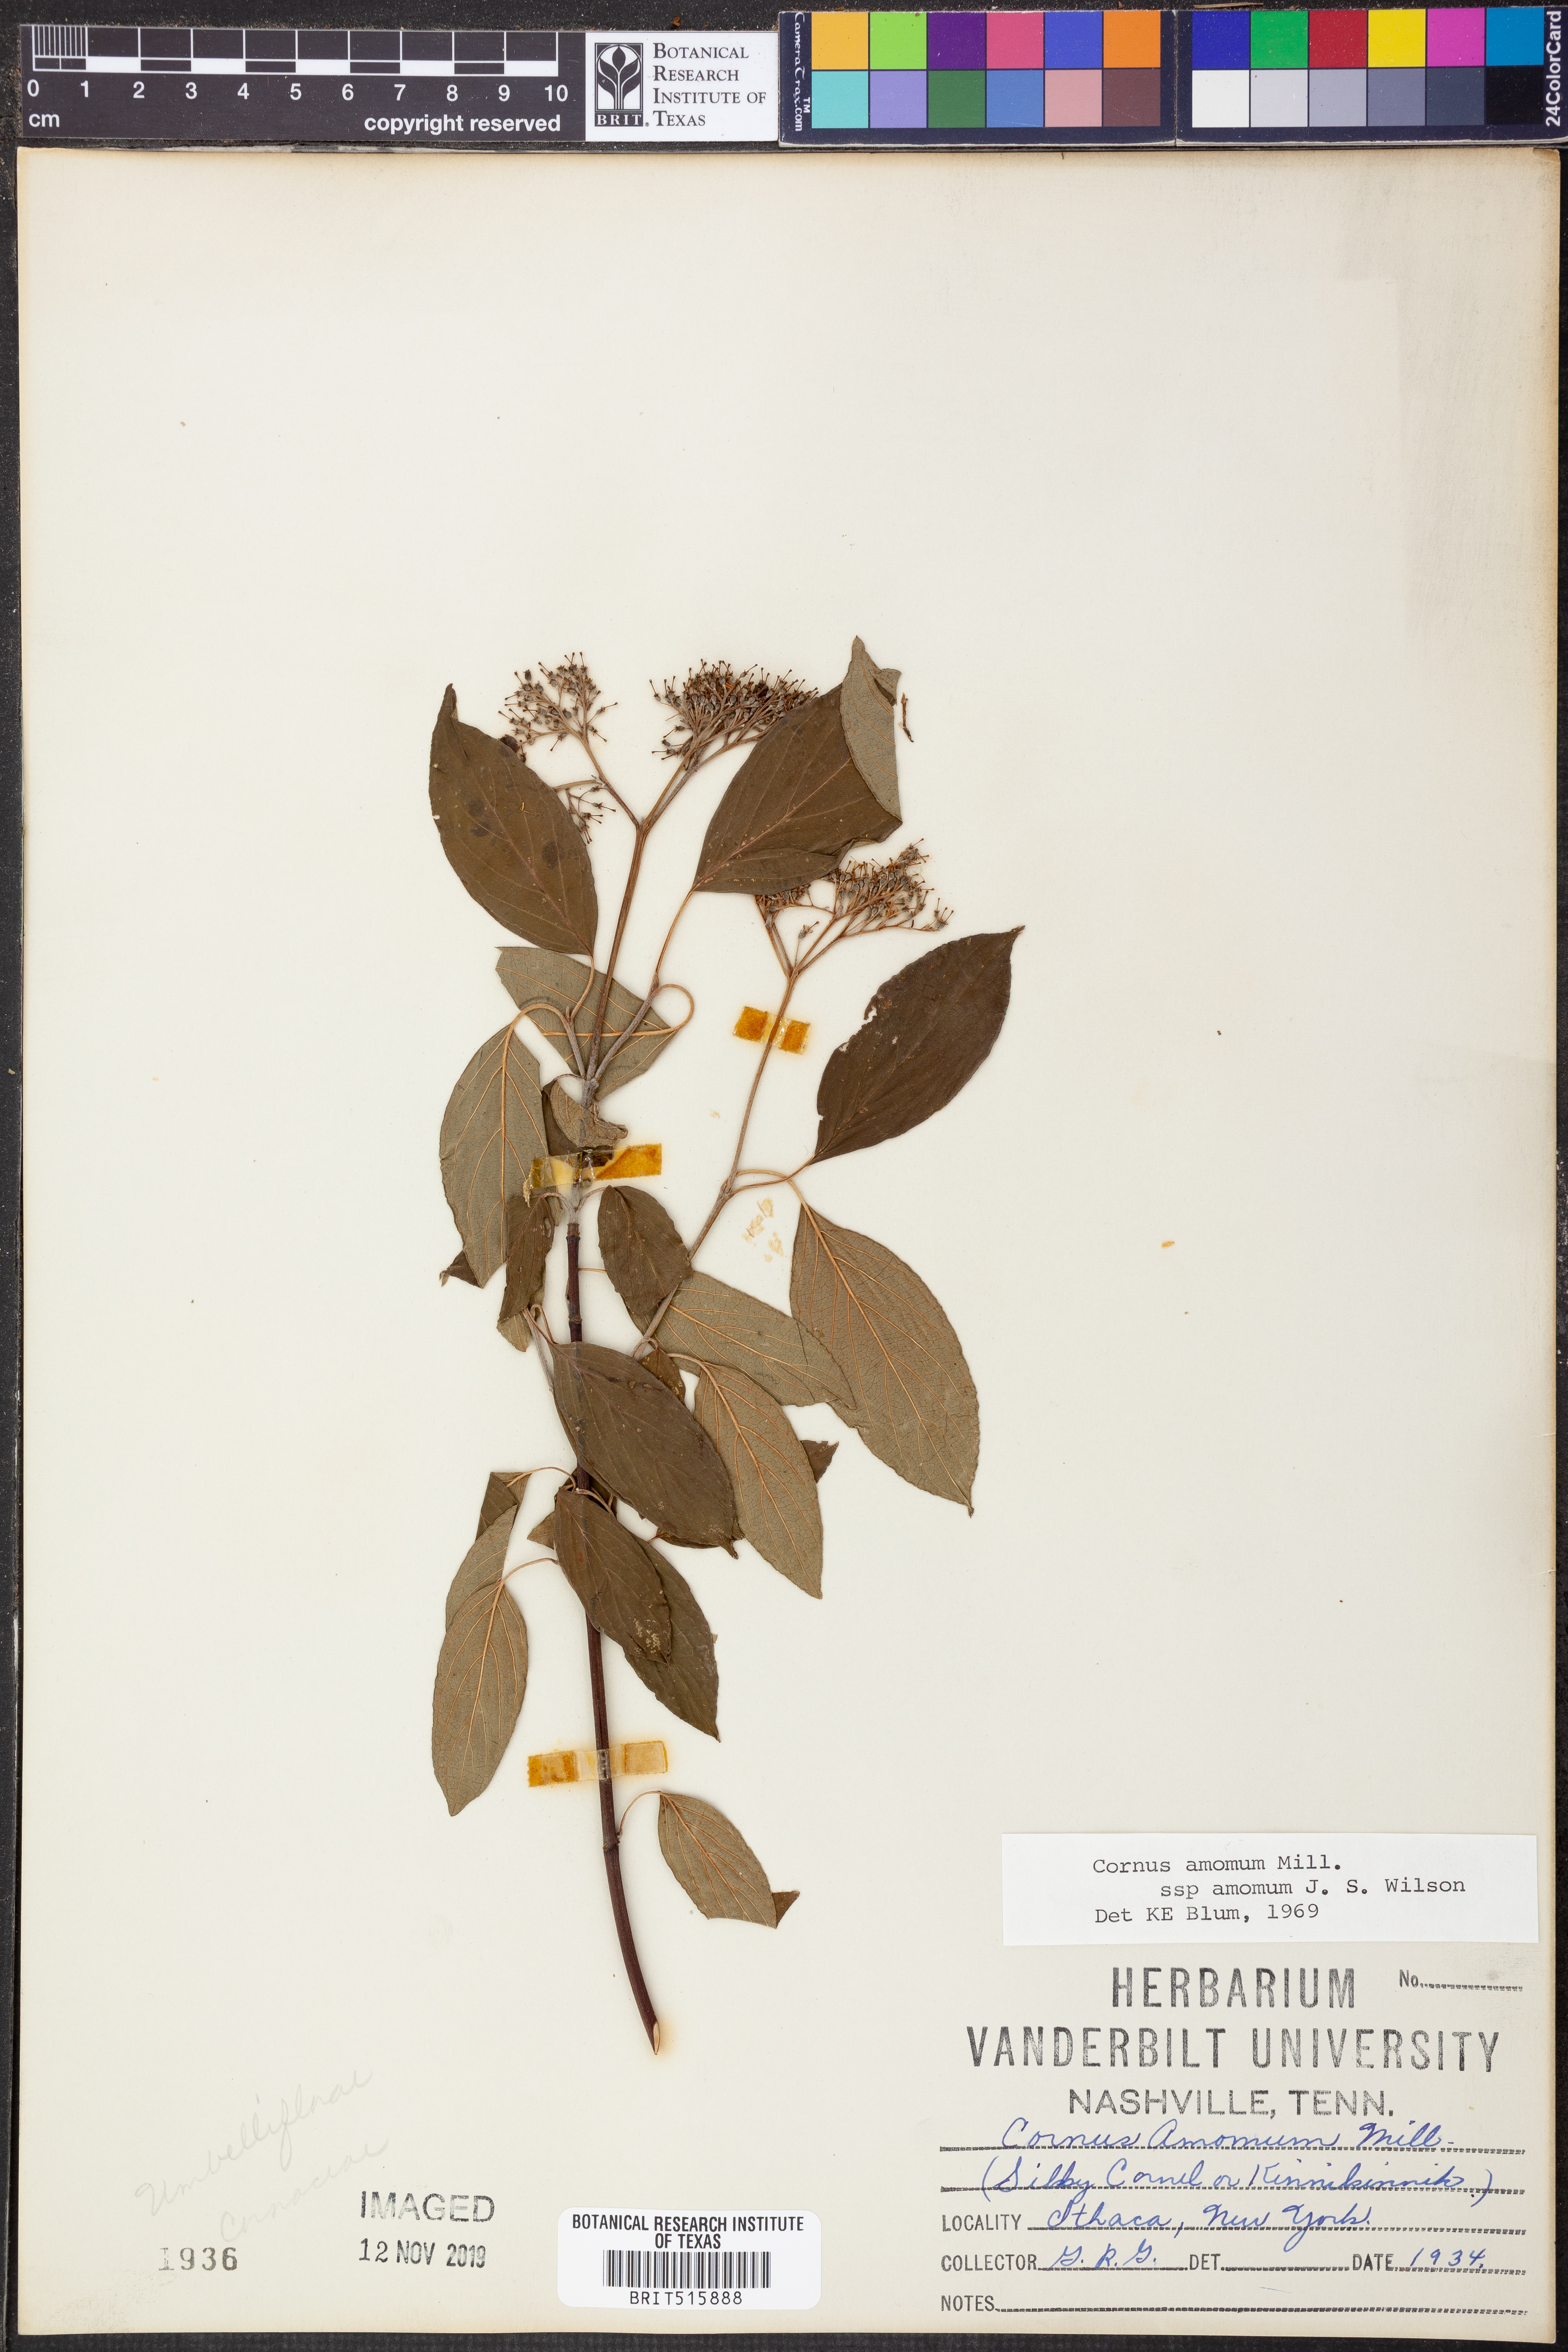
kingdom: Plantae
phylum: Tracheophyta
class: Magnoliopsida
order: Cornales
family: Cornaceae
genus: Cornus
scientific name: Cornus amomum
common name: Silky dogwood
